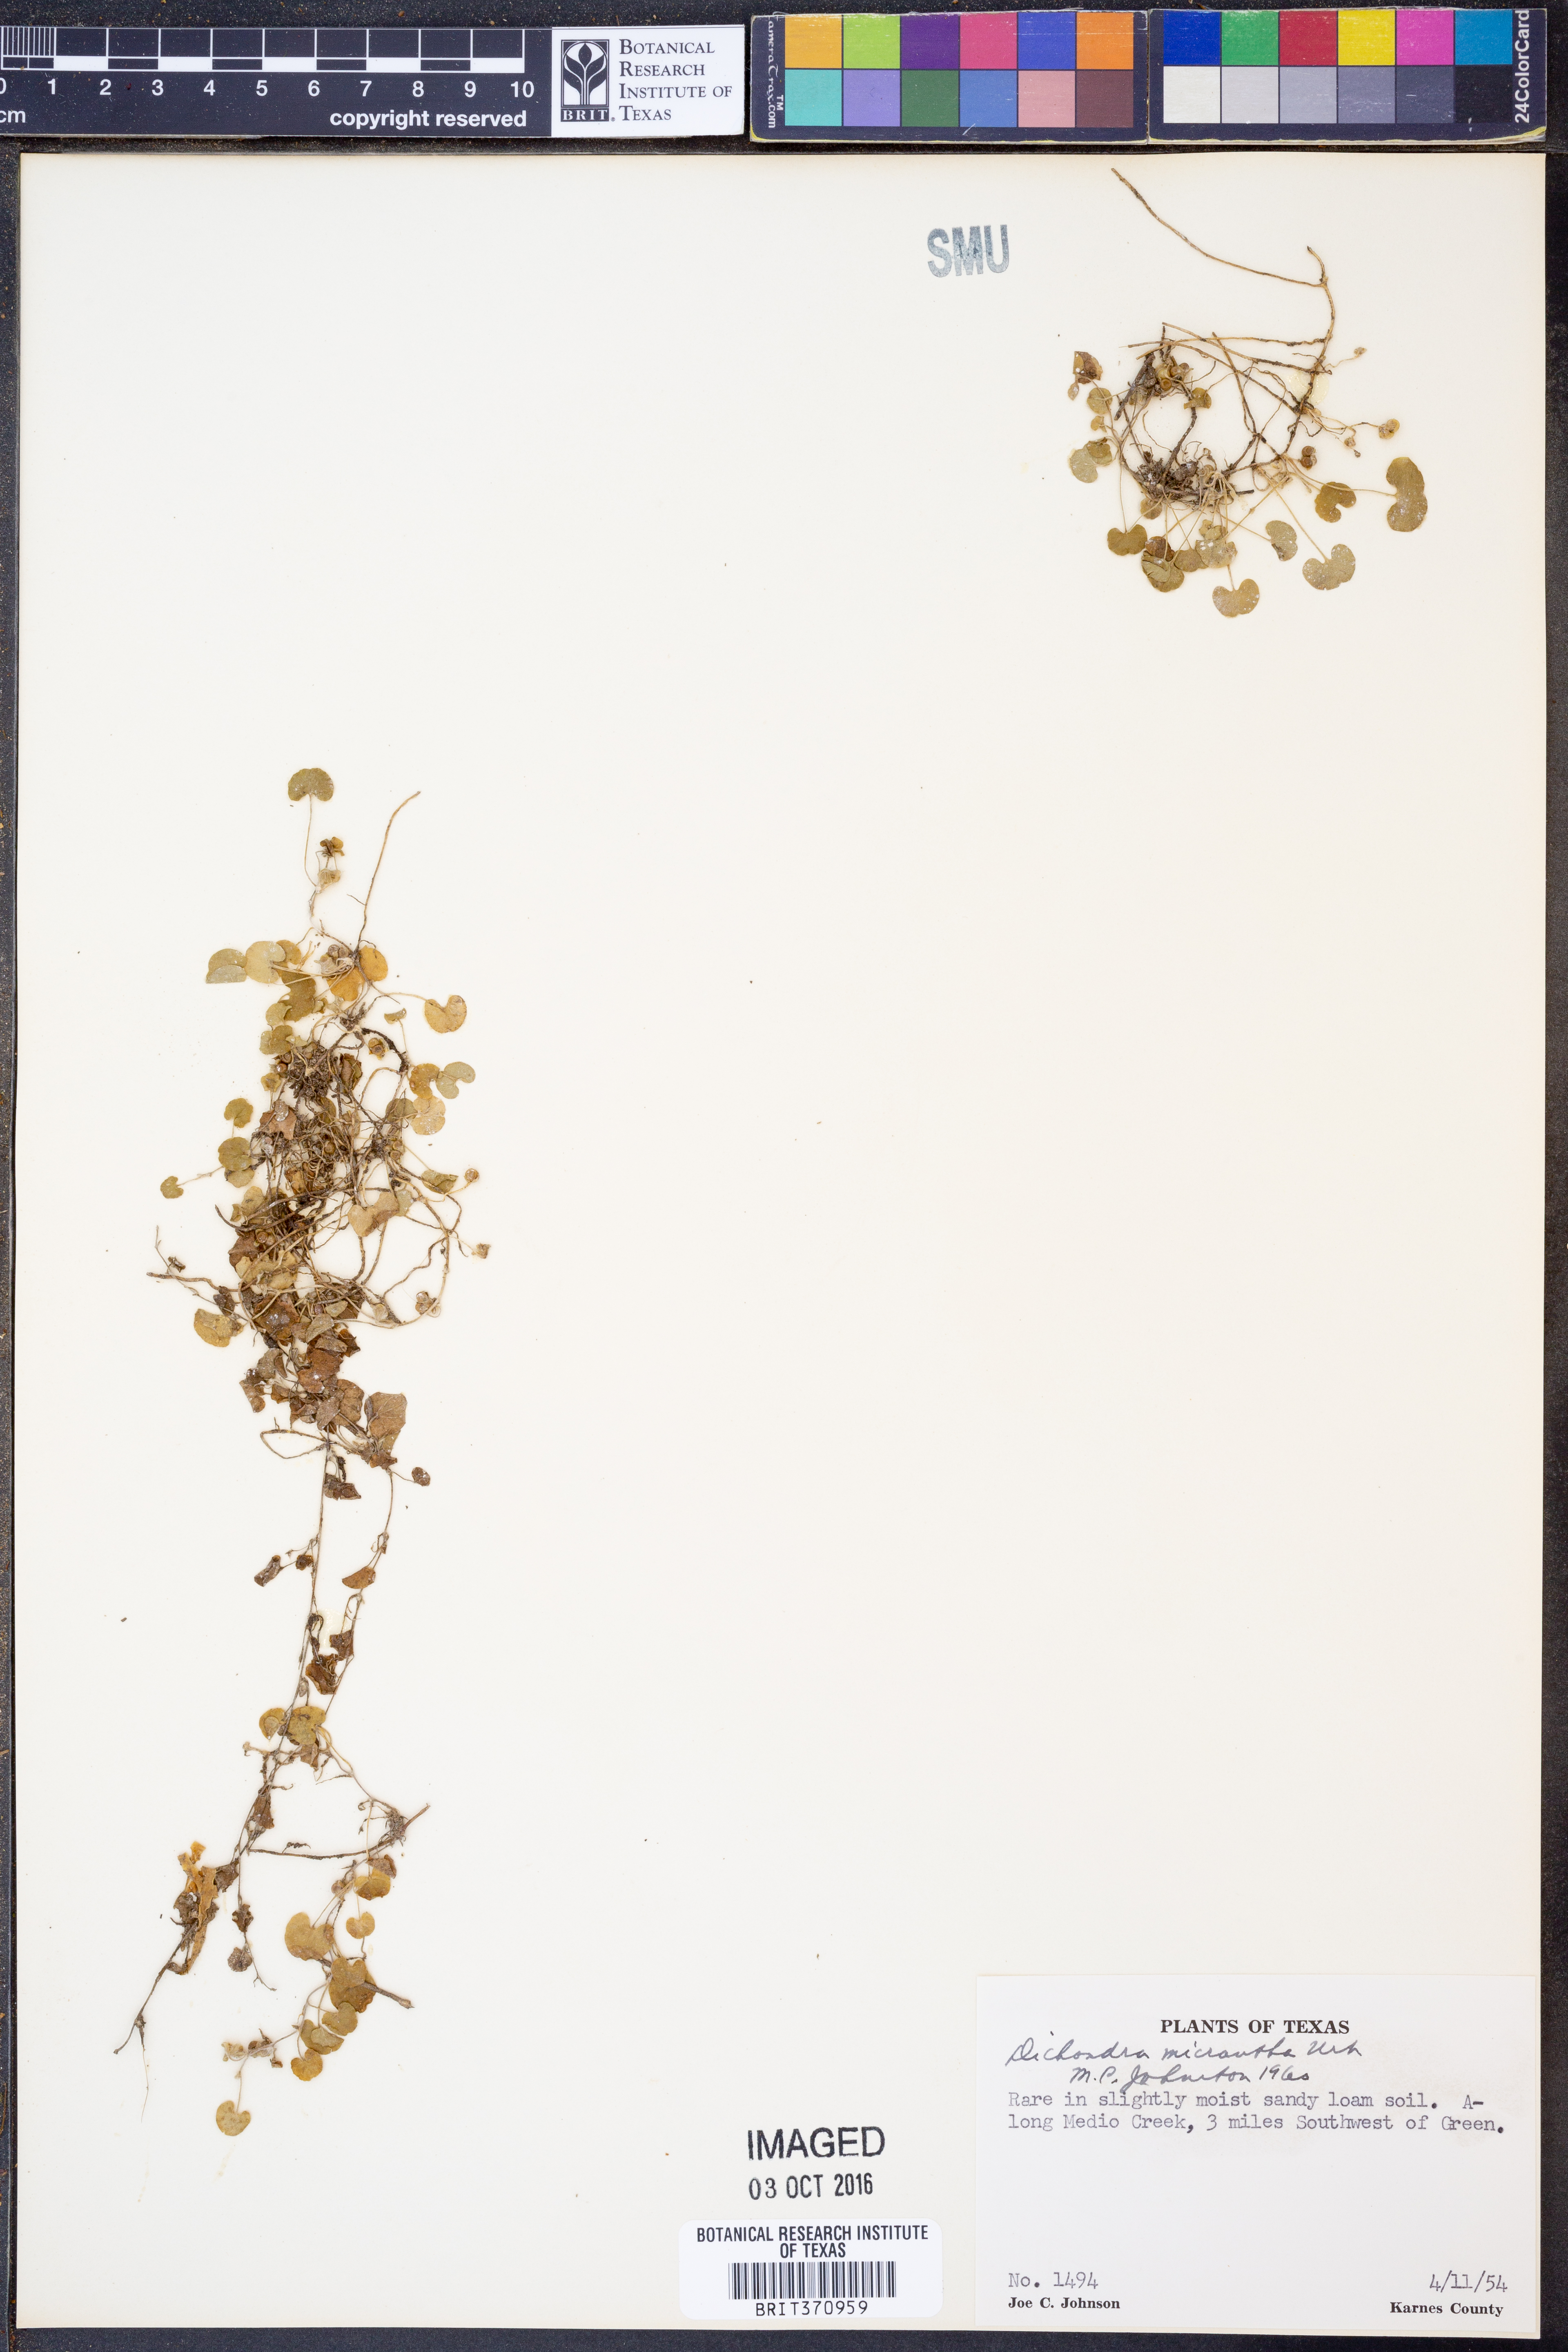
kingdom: Plantae
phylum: Tracheophyta
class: Magnoliopsida
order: Solanales
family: Convolvulaceae
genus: Dichondra
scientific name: Dichondra micrantha
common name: Kidneyweed
